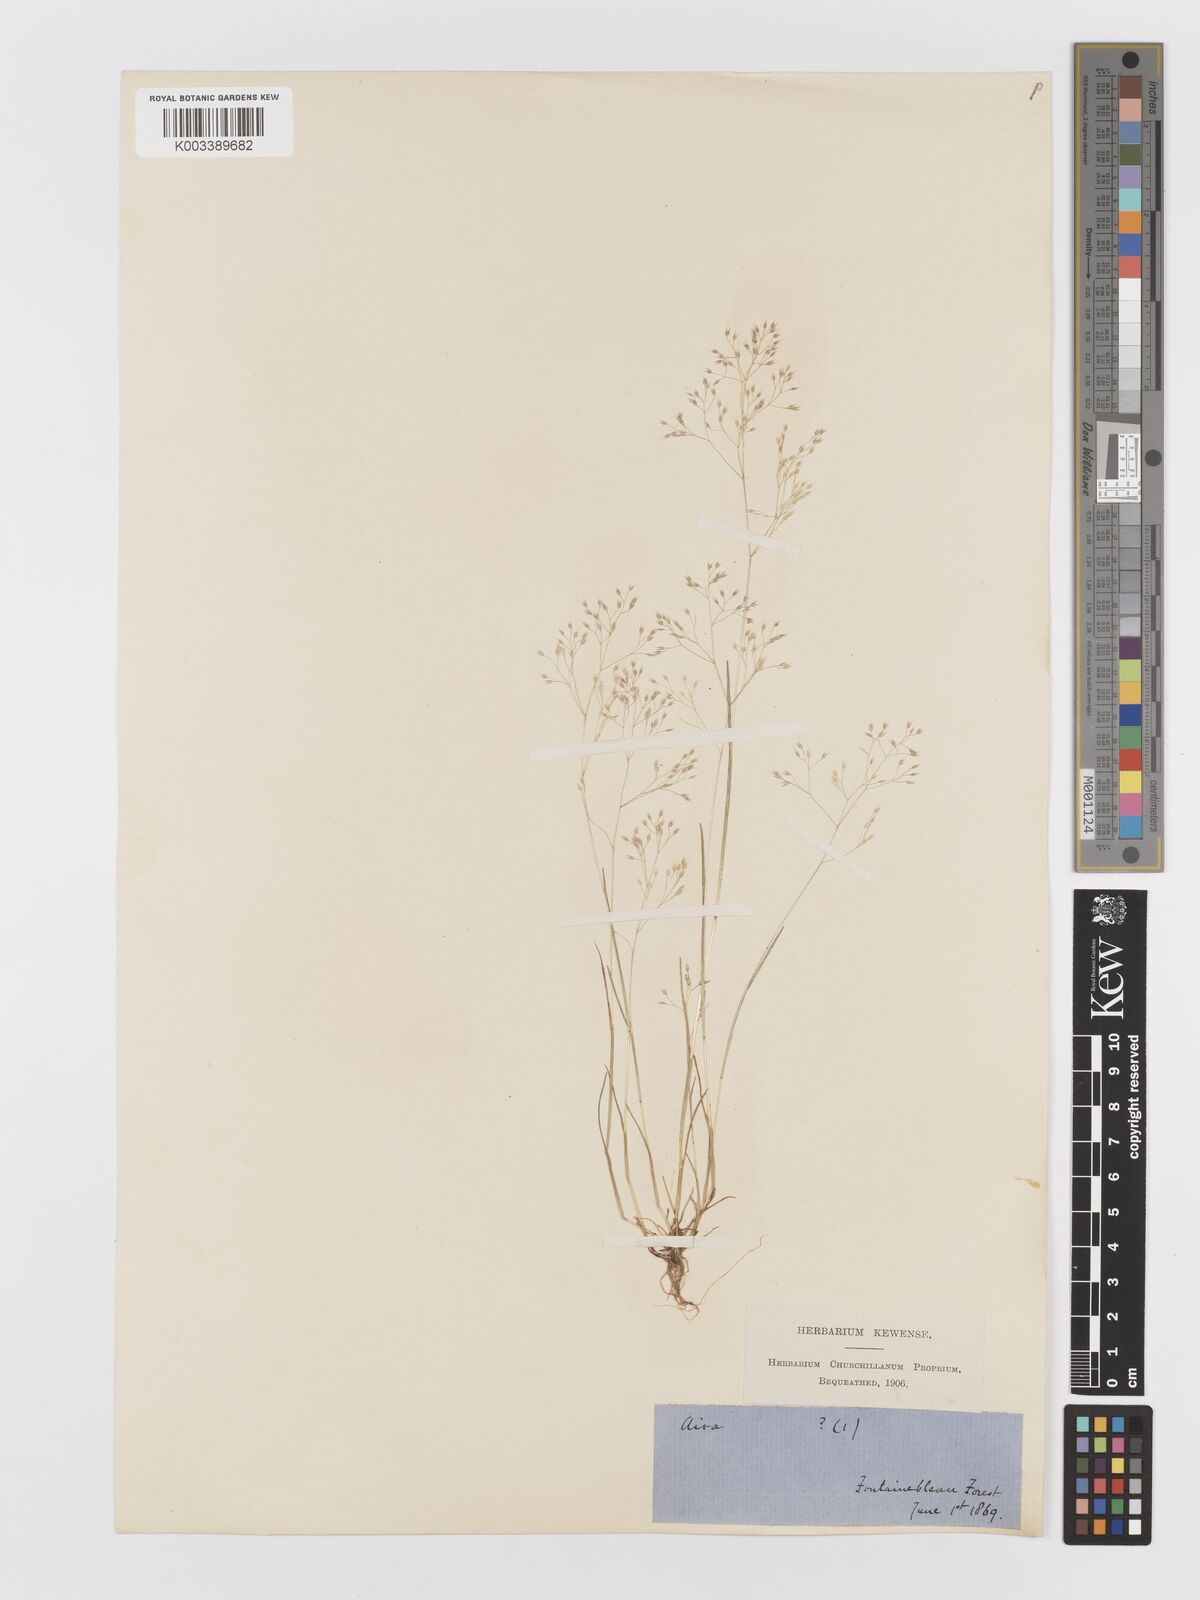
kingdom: Plantae
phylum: Tracheophyta
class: Liliopsida
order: Poales
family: Poaceae
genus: Aira
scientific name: Aira caryophyllea
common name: Silver hairgrass
